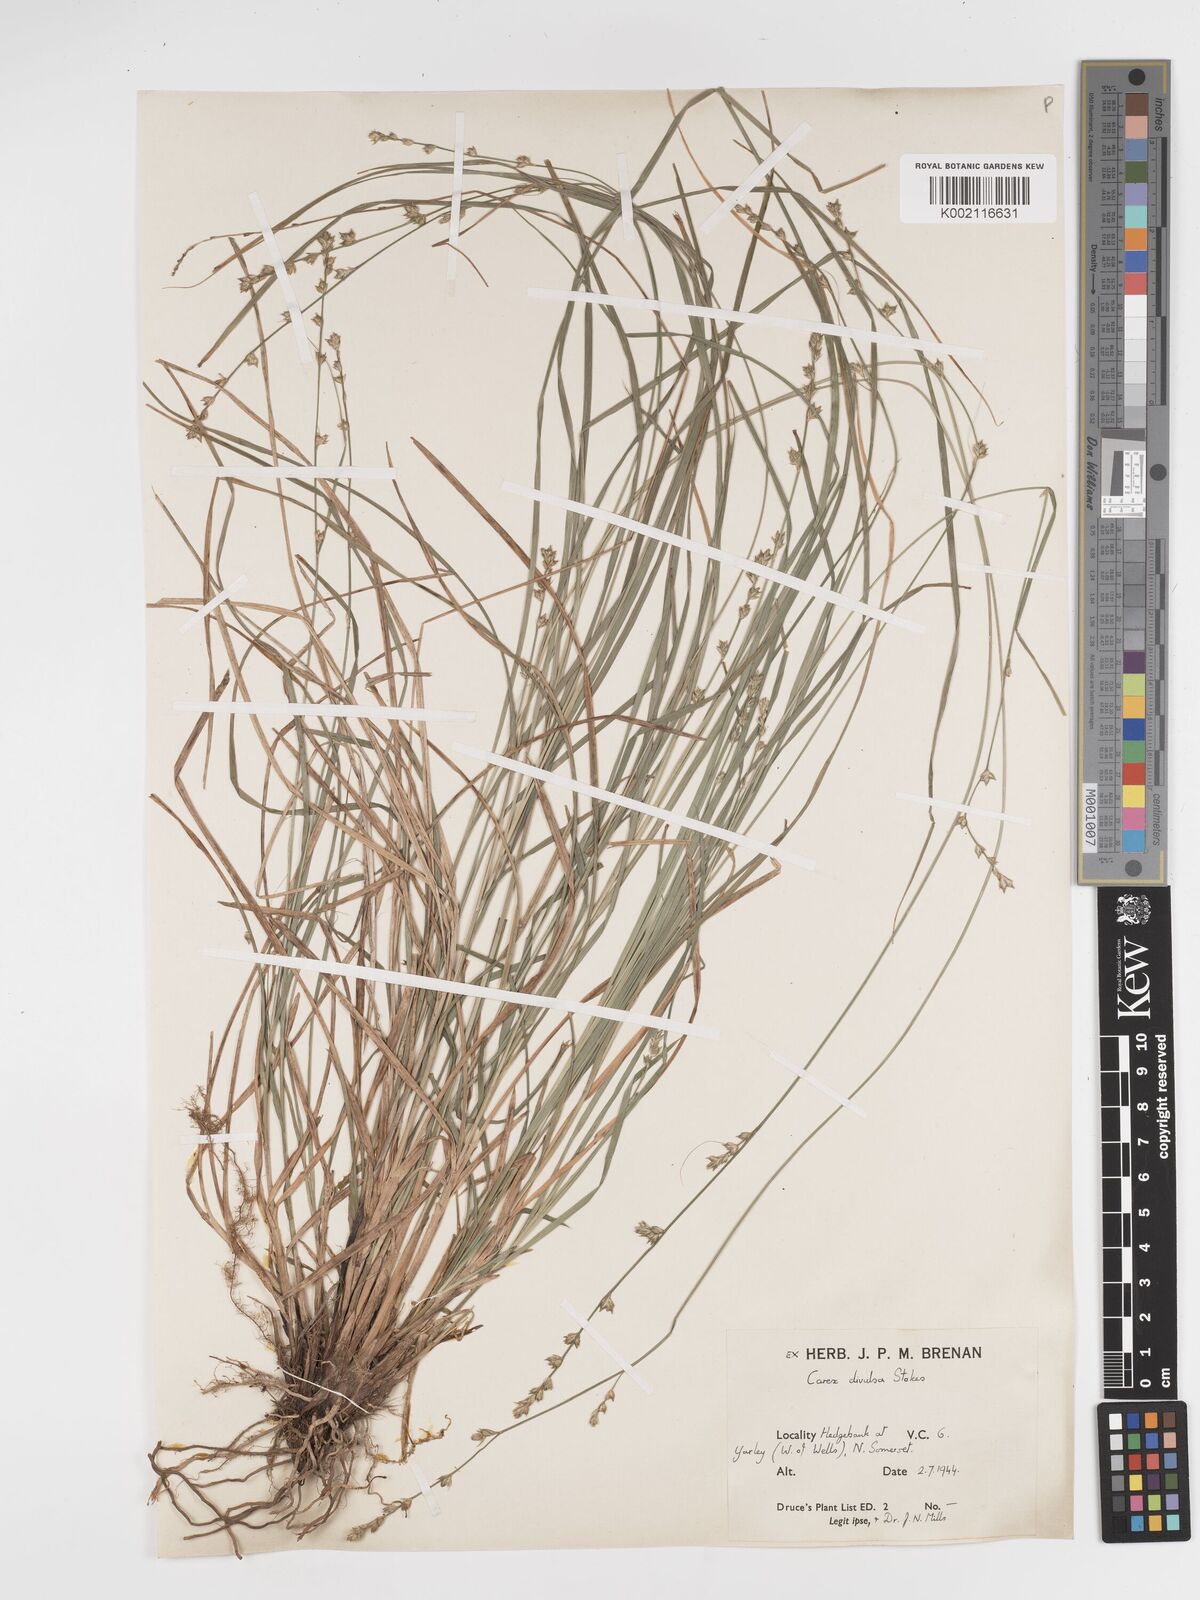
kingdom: Plantae
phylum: Tracheophyta
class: Liliopsida
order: Poales
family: Cyperaceae
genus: Carex
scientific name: Carex divulsa
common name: Grassland sedge
